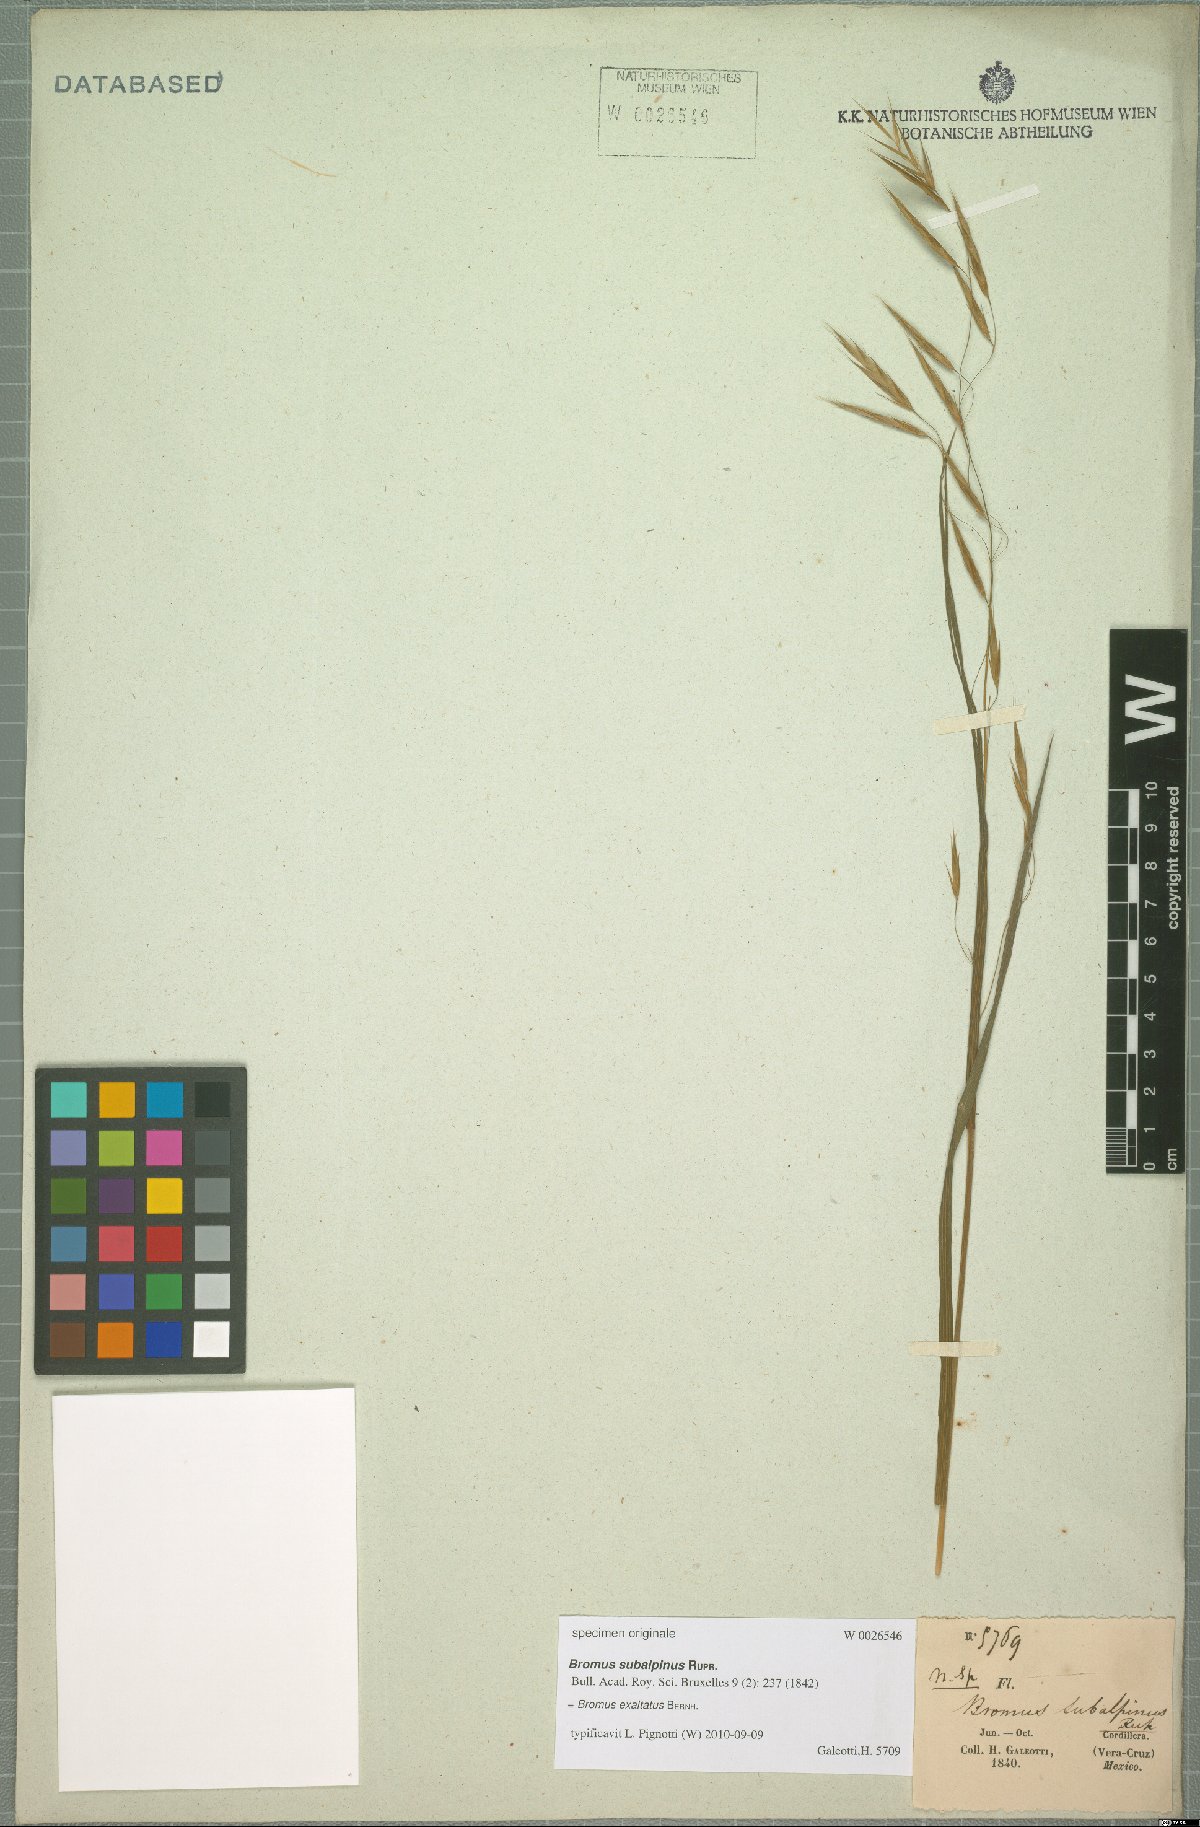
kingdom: Plantae
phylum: Tracheophyta
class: Liliopsida
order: Poales
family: Poaceae
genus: Bromus
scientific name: Bromus exaltatus
